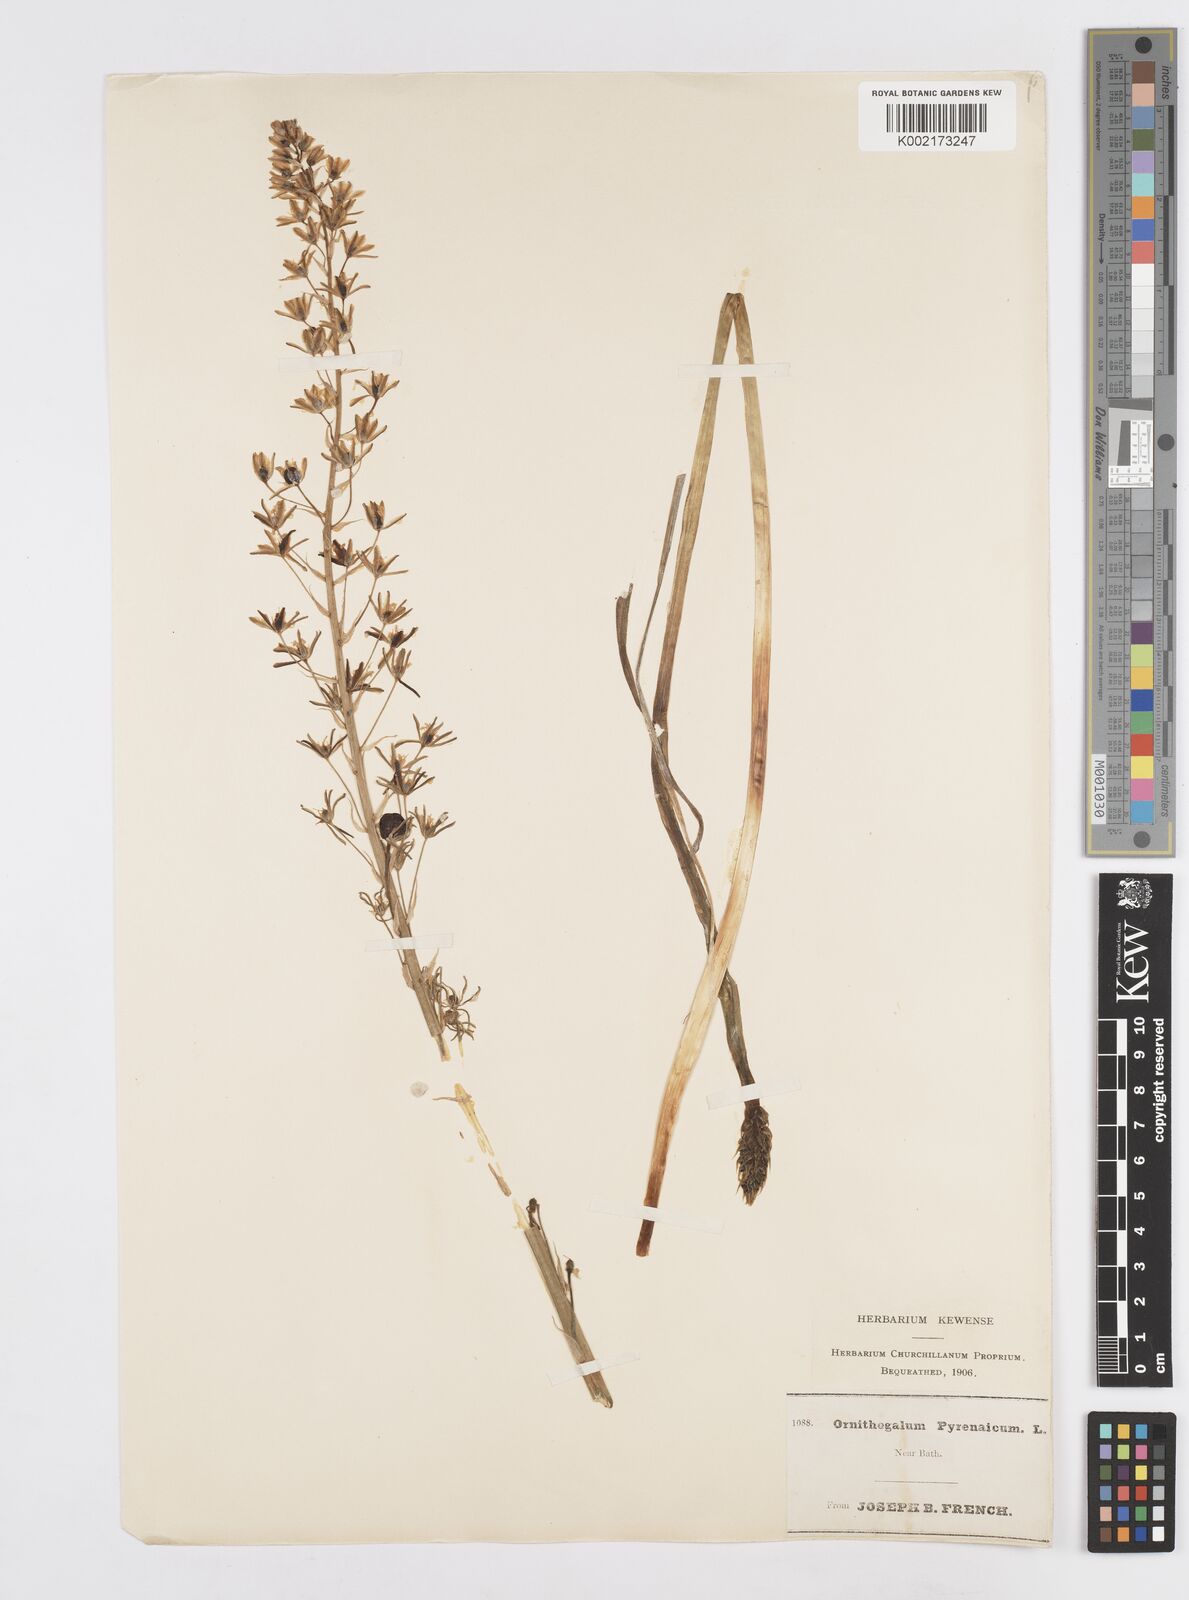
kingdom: Plantae
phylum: Tracheophyta
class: Liliopsida
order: Asparagales
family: Asparagaceae
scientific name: Asparagaceae
